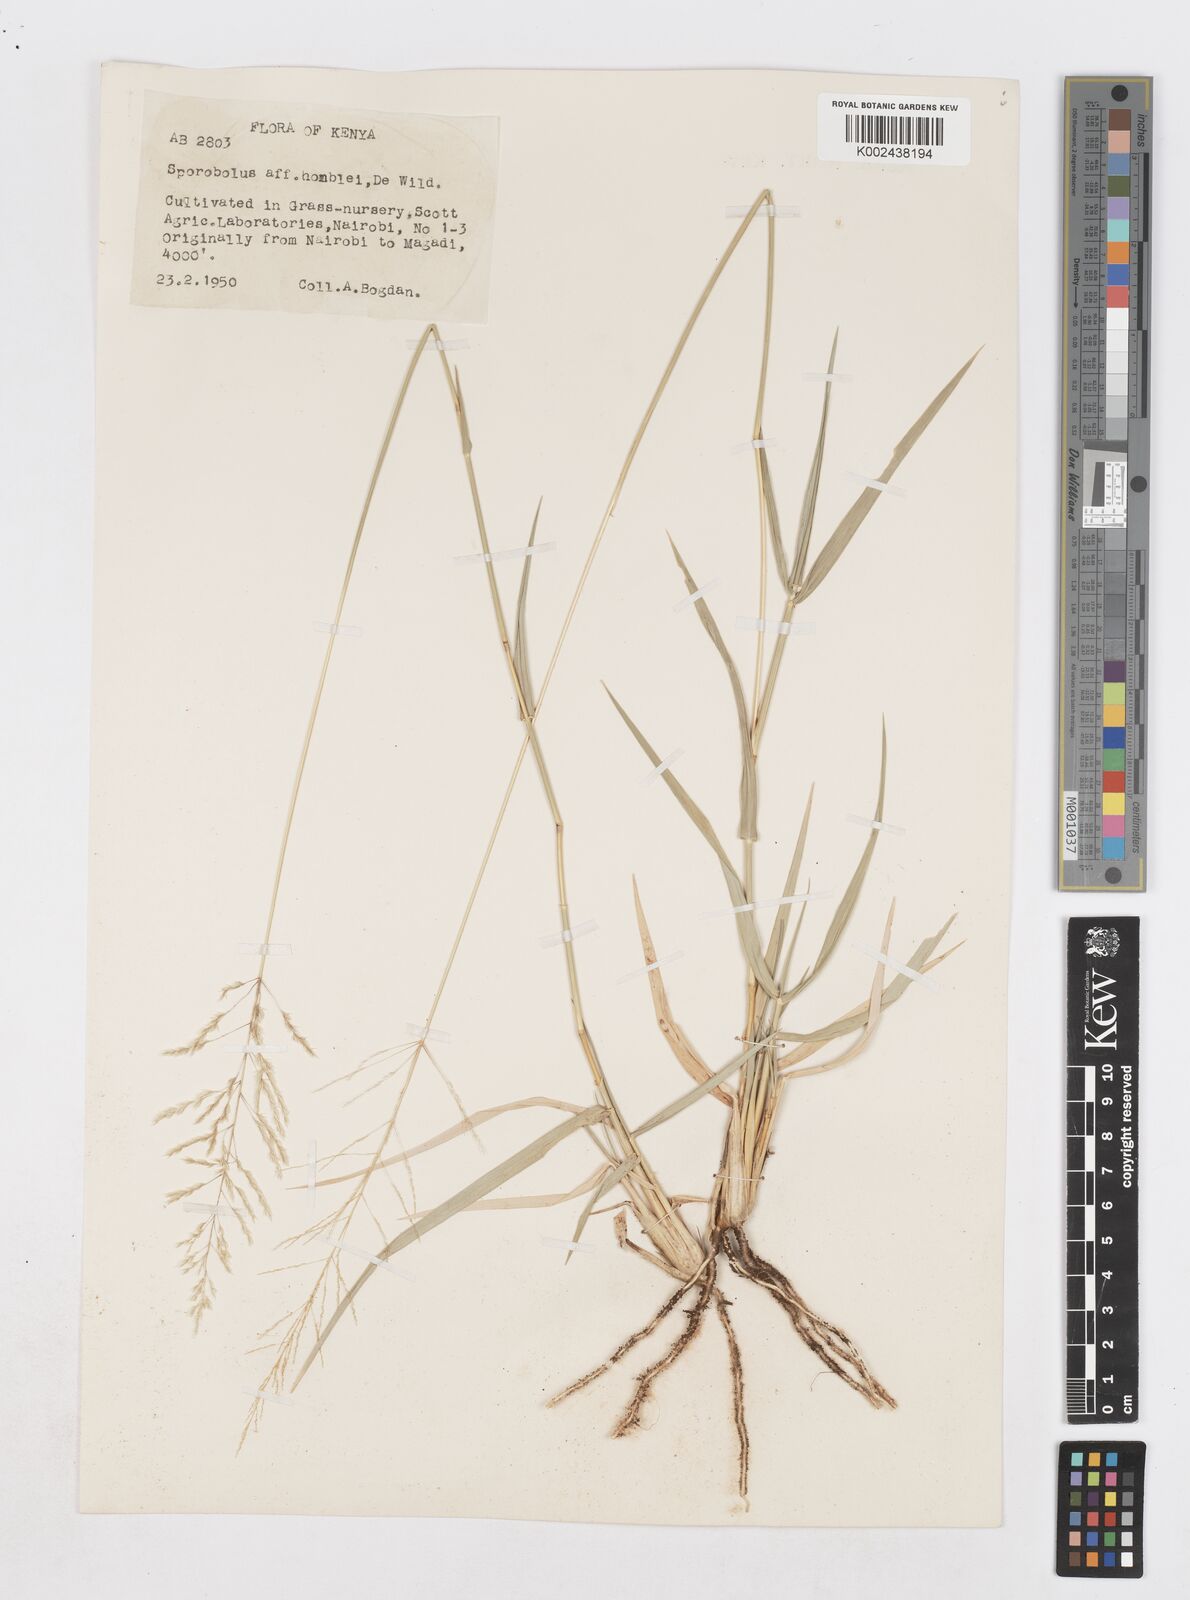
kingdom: Plantae
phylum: Tracheophyta
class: Liliopsida
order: Poales
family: Poaceae
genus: Sporobolus
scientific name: Sporobolus ioclados
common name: Pan dropseed
